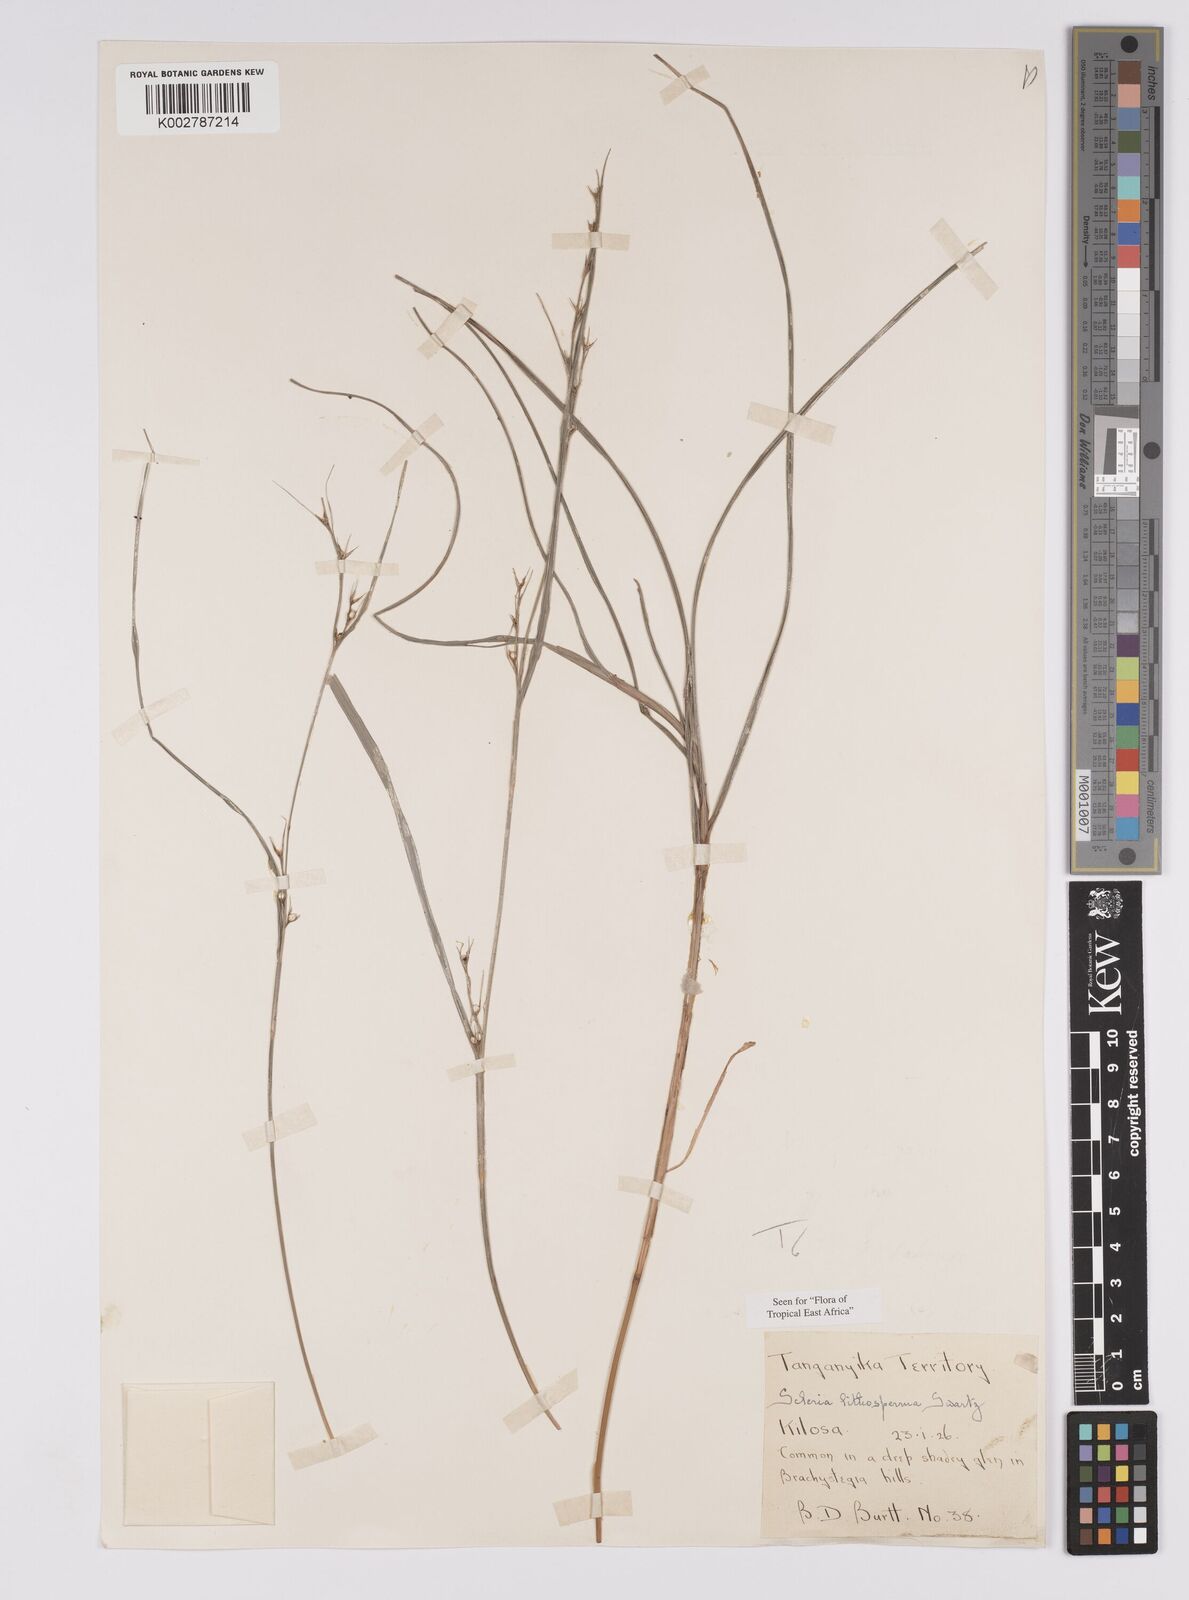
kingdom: Plantae
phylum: Tracheophyta
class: Liliopsida
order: Poales
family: Cyperaceae
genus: Scleria
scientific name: Scleria lithosperma
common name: Florida keys nut-rush
